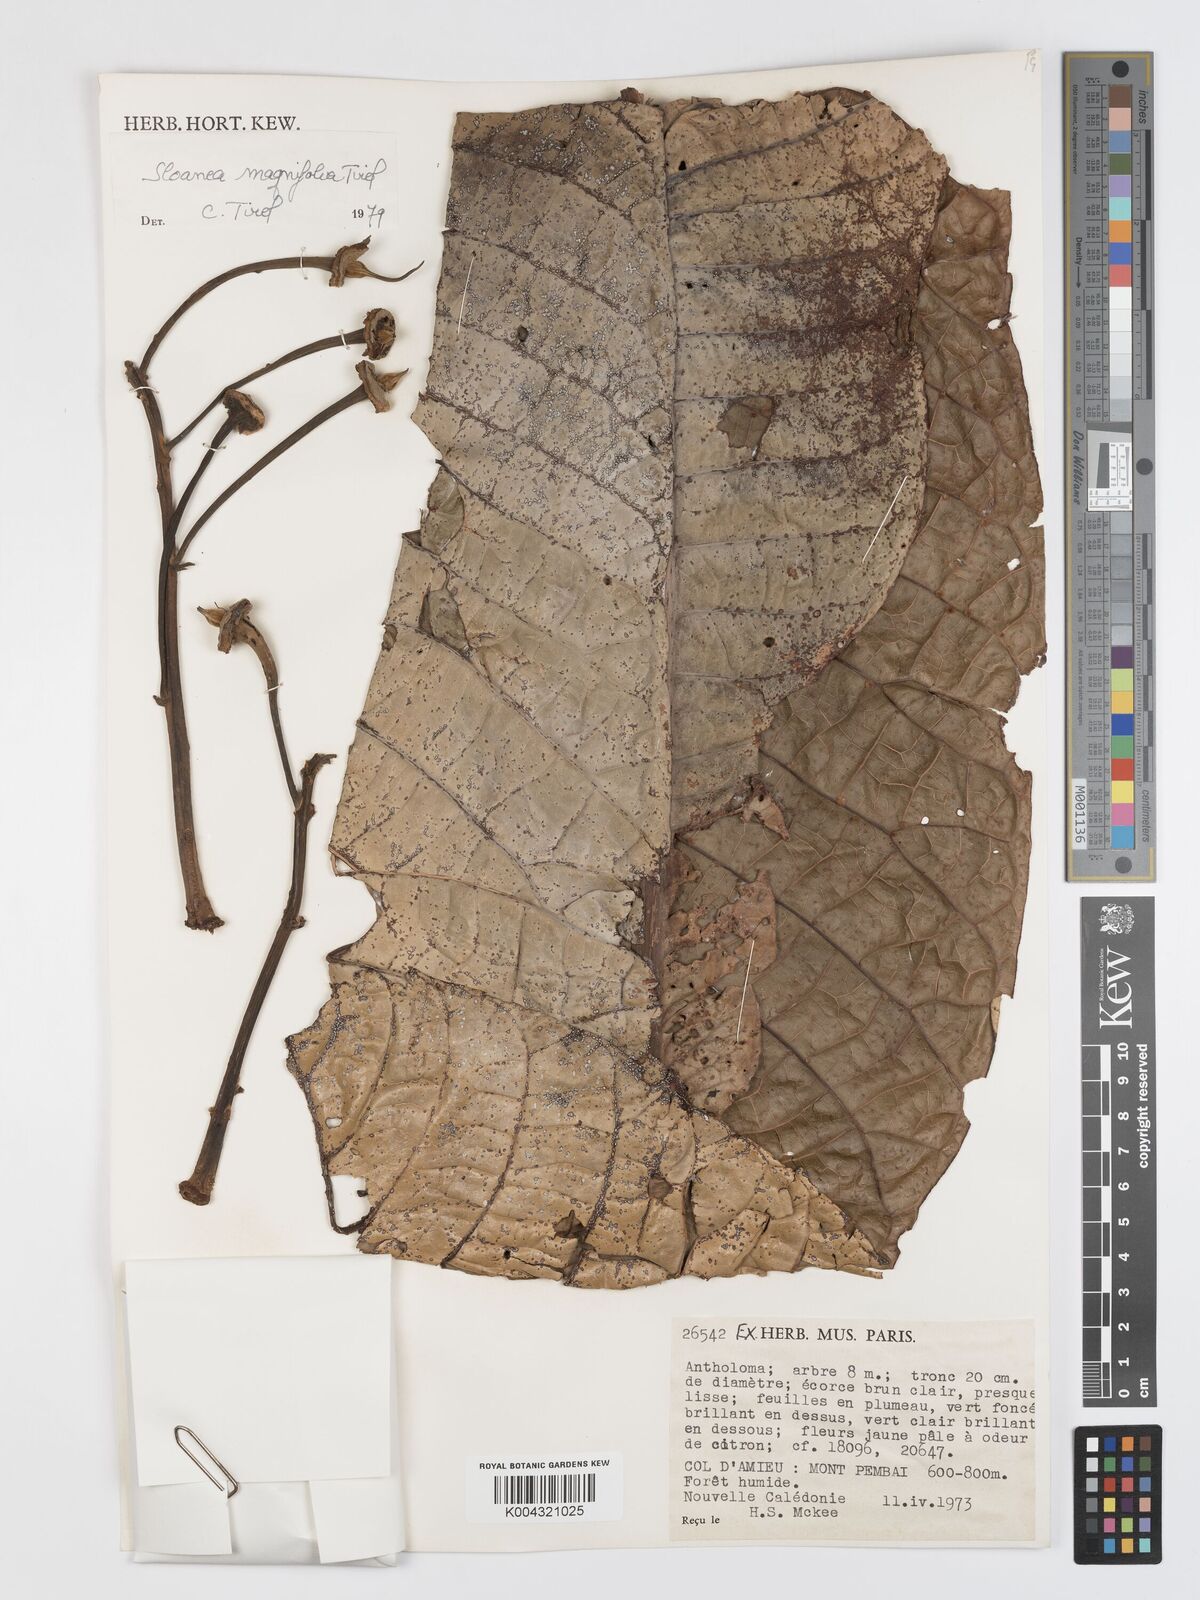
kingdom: Plantae
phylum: Tracheophyta
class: Magnoliopsida
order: Oxalidales
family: Elaeocarpaceae
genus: Sloanea
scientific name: Sloanea magnifolia
